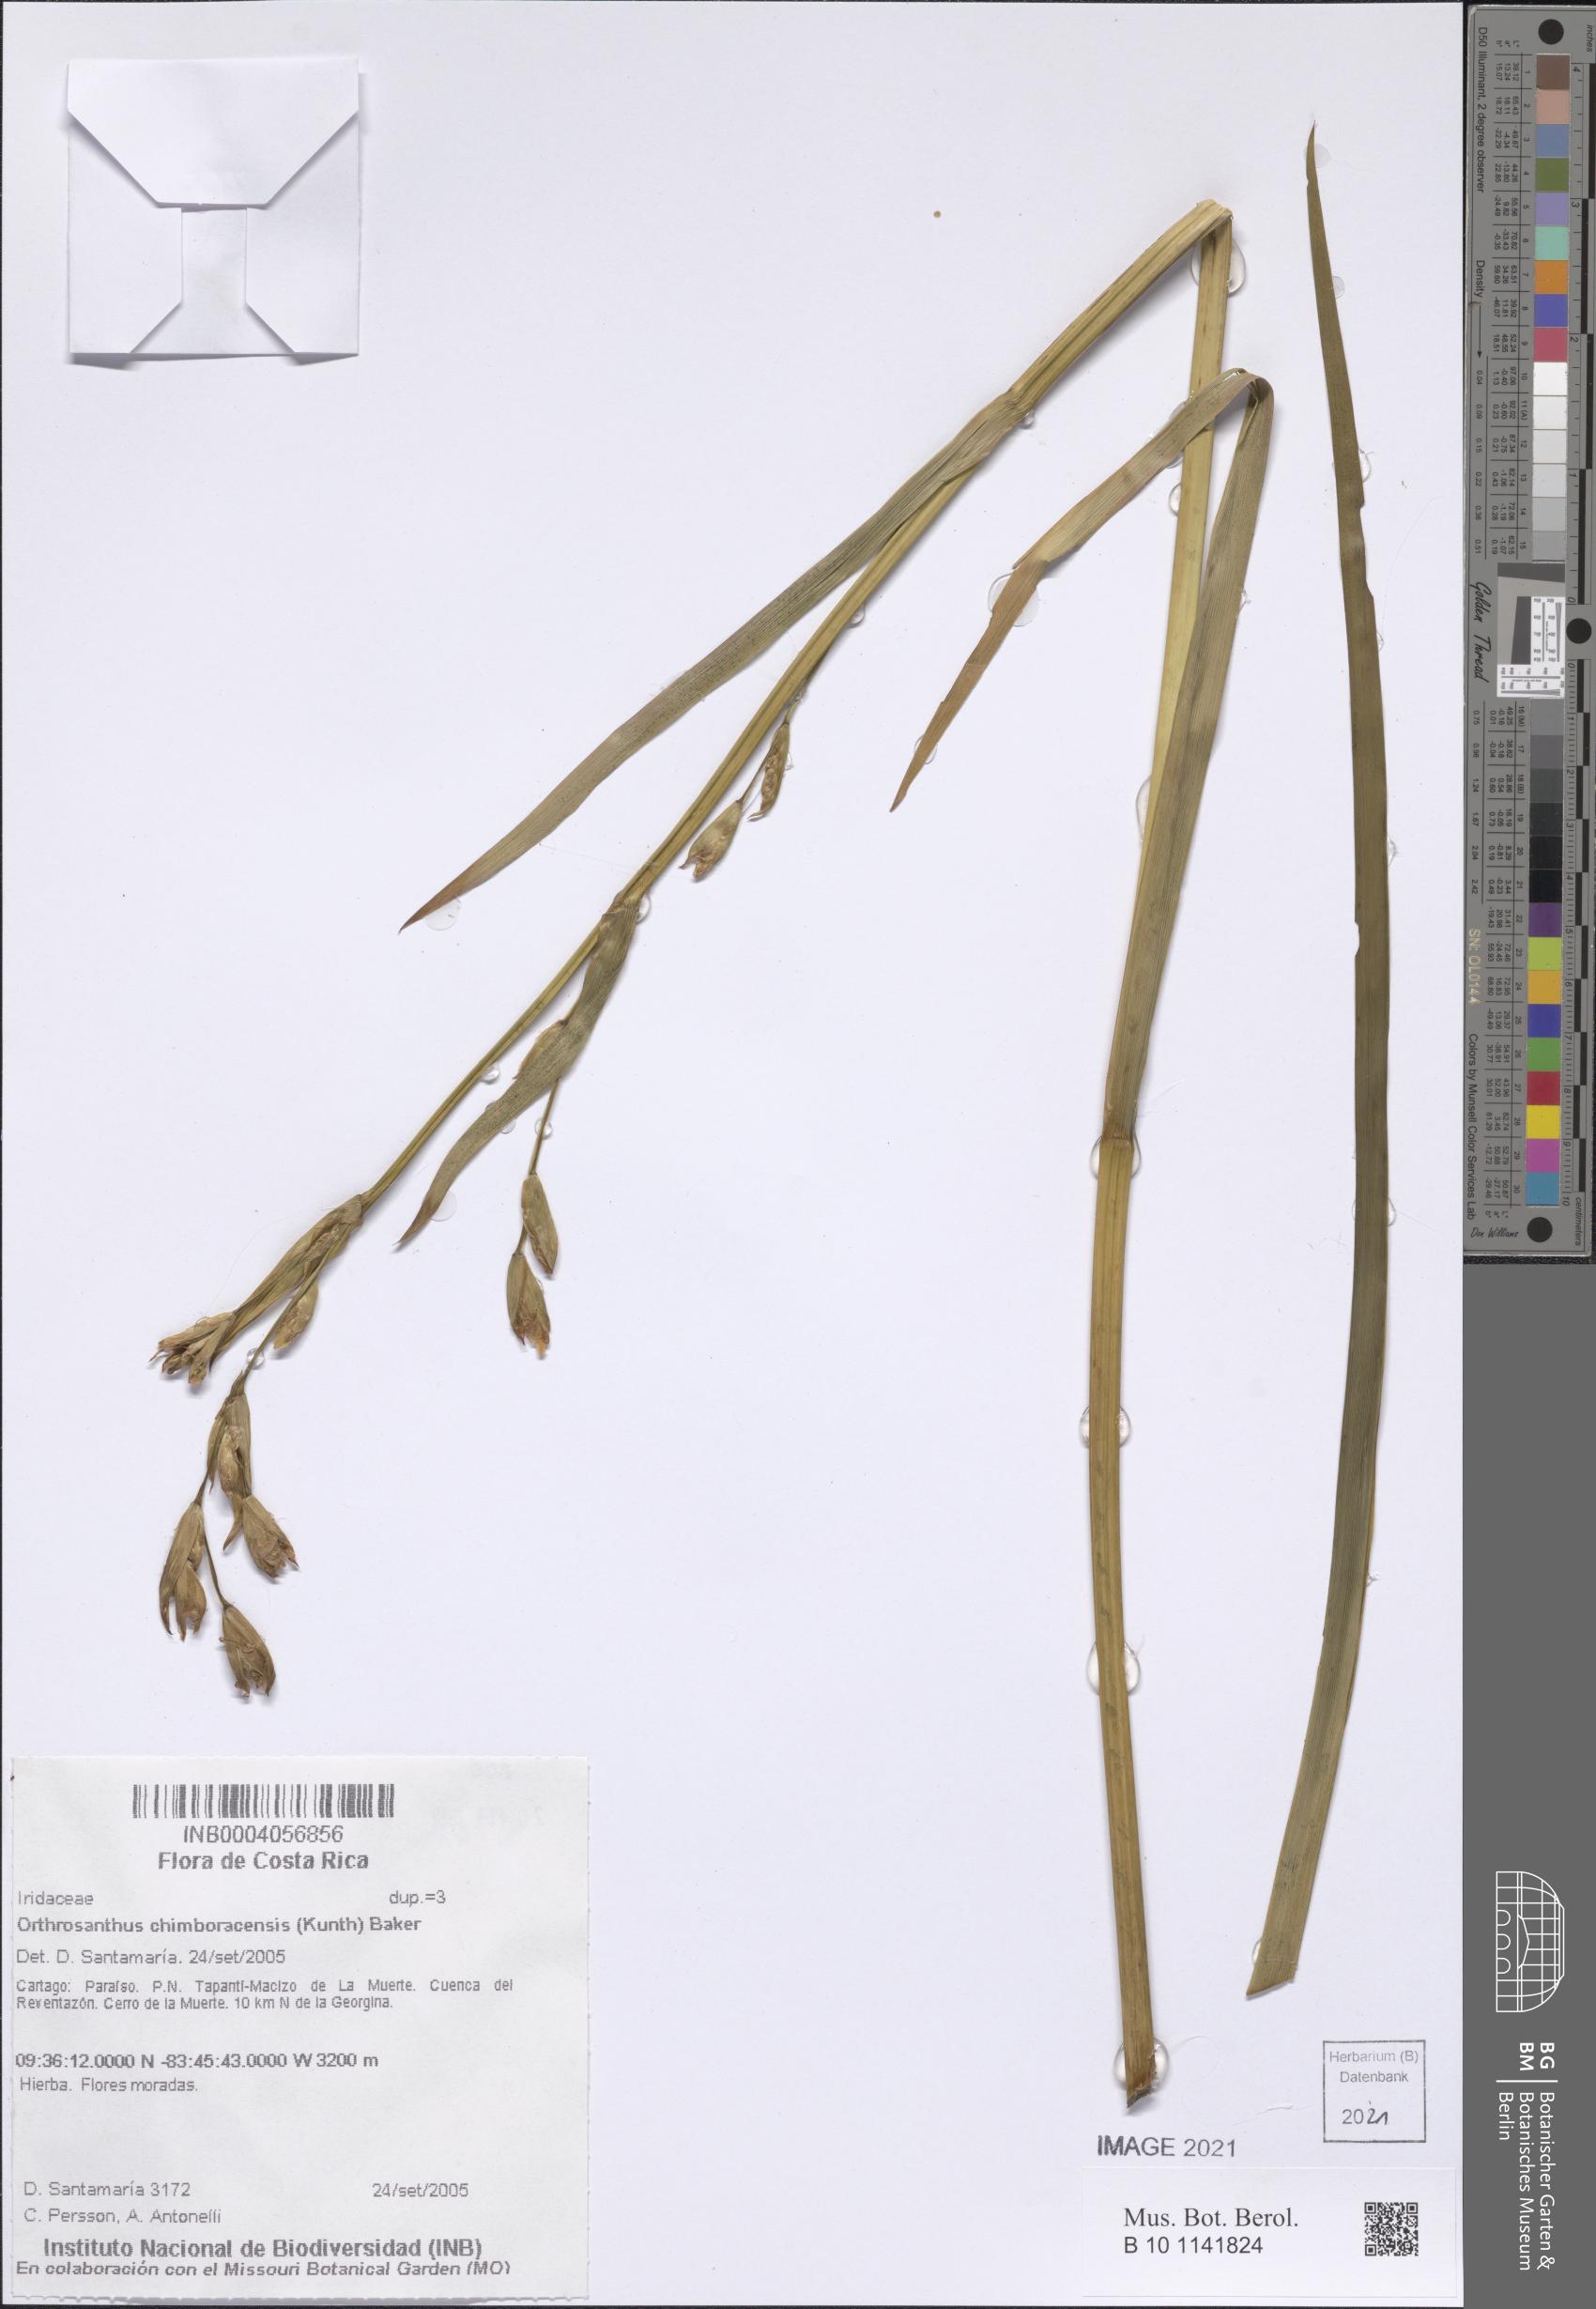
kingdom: Plantae
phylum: Tracheophyta
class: Liliopsida
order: Asparagales
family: Iridaceae
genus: Orthrosanthus
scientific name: Orthrosanthus chimboracensis
